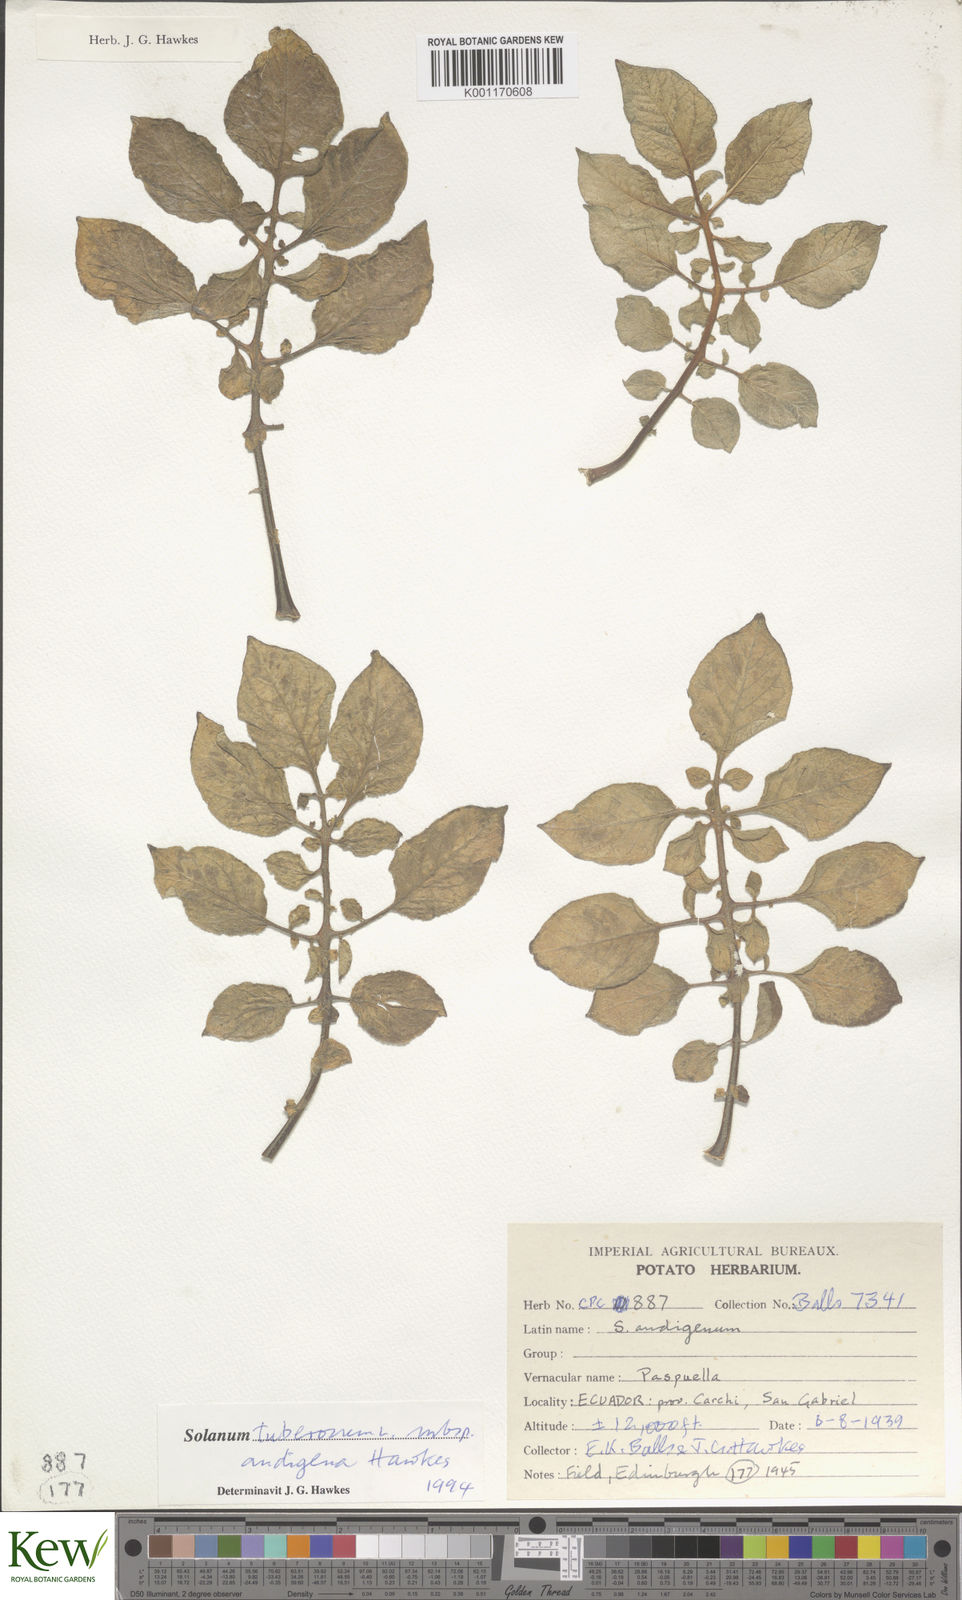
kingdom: Plantae
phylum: Tracheophyta
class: Magnoliopsida
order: Solanales
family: Solanaceae
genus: Solanum
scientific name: Solanum tuberosum
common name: Potato
